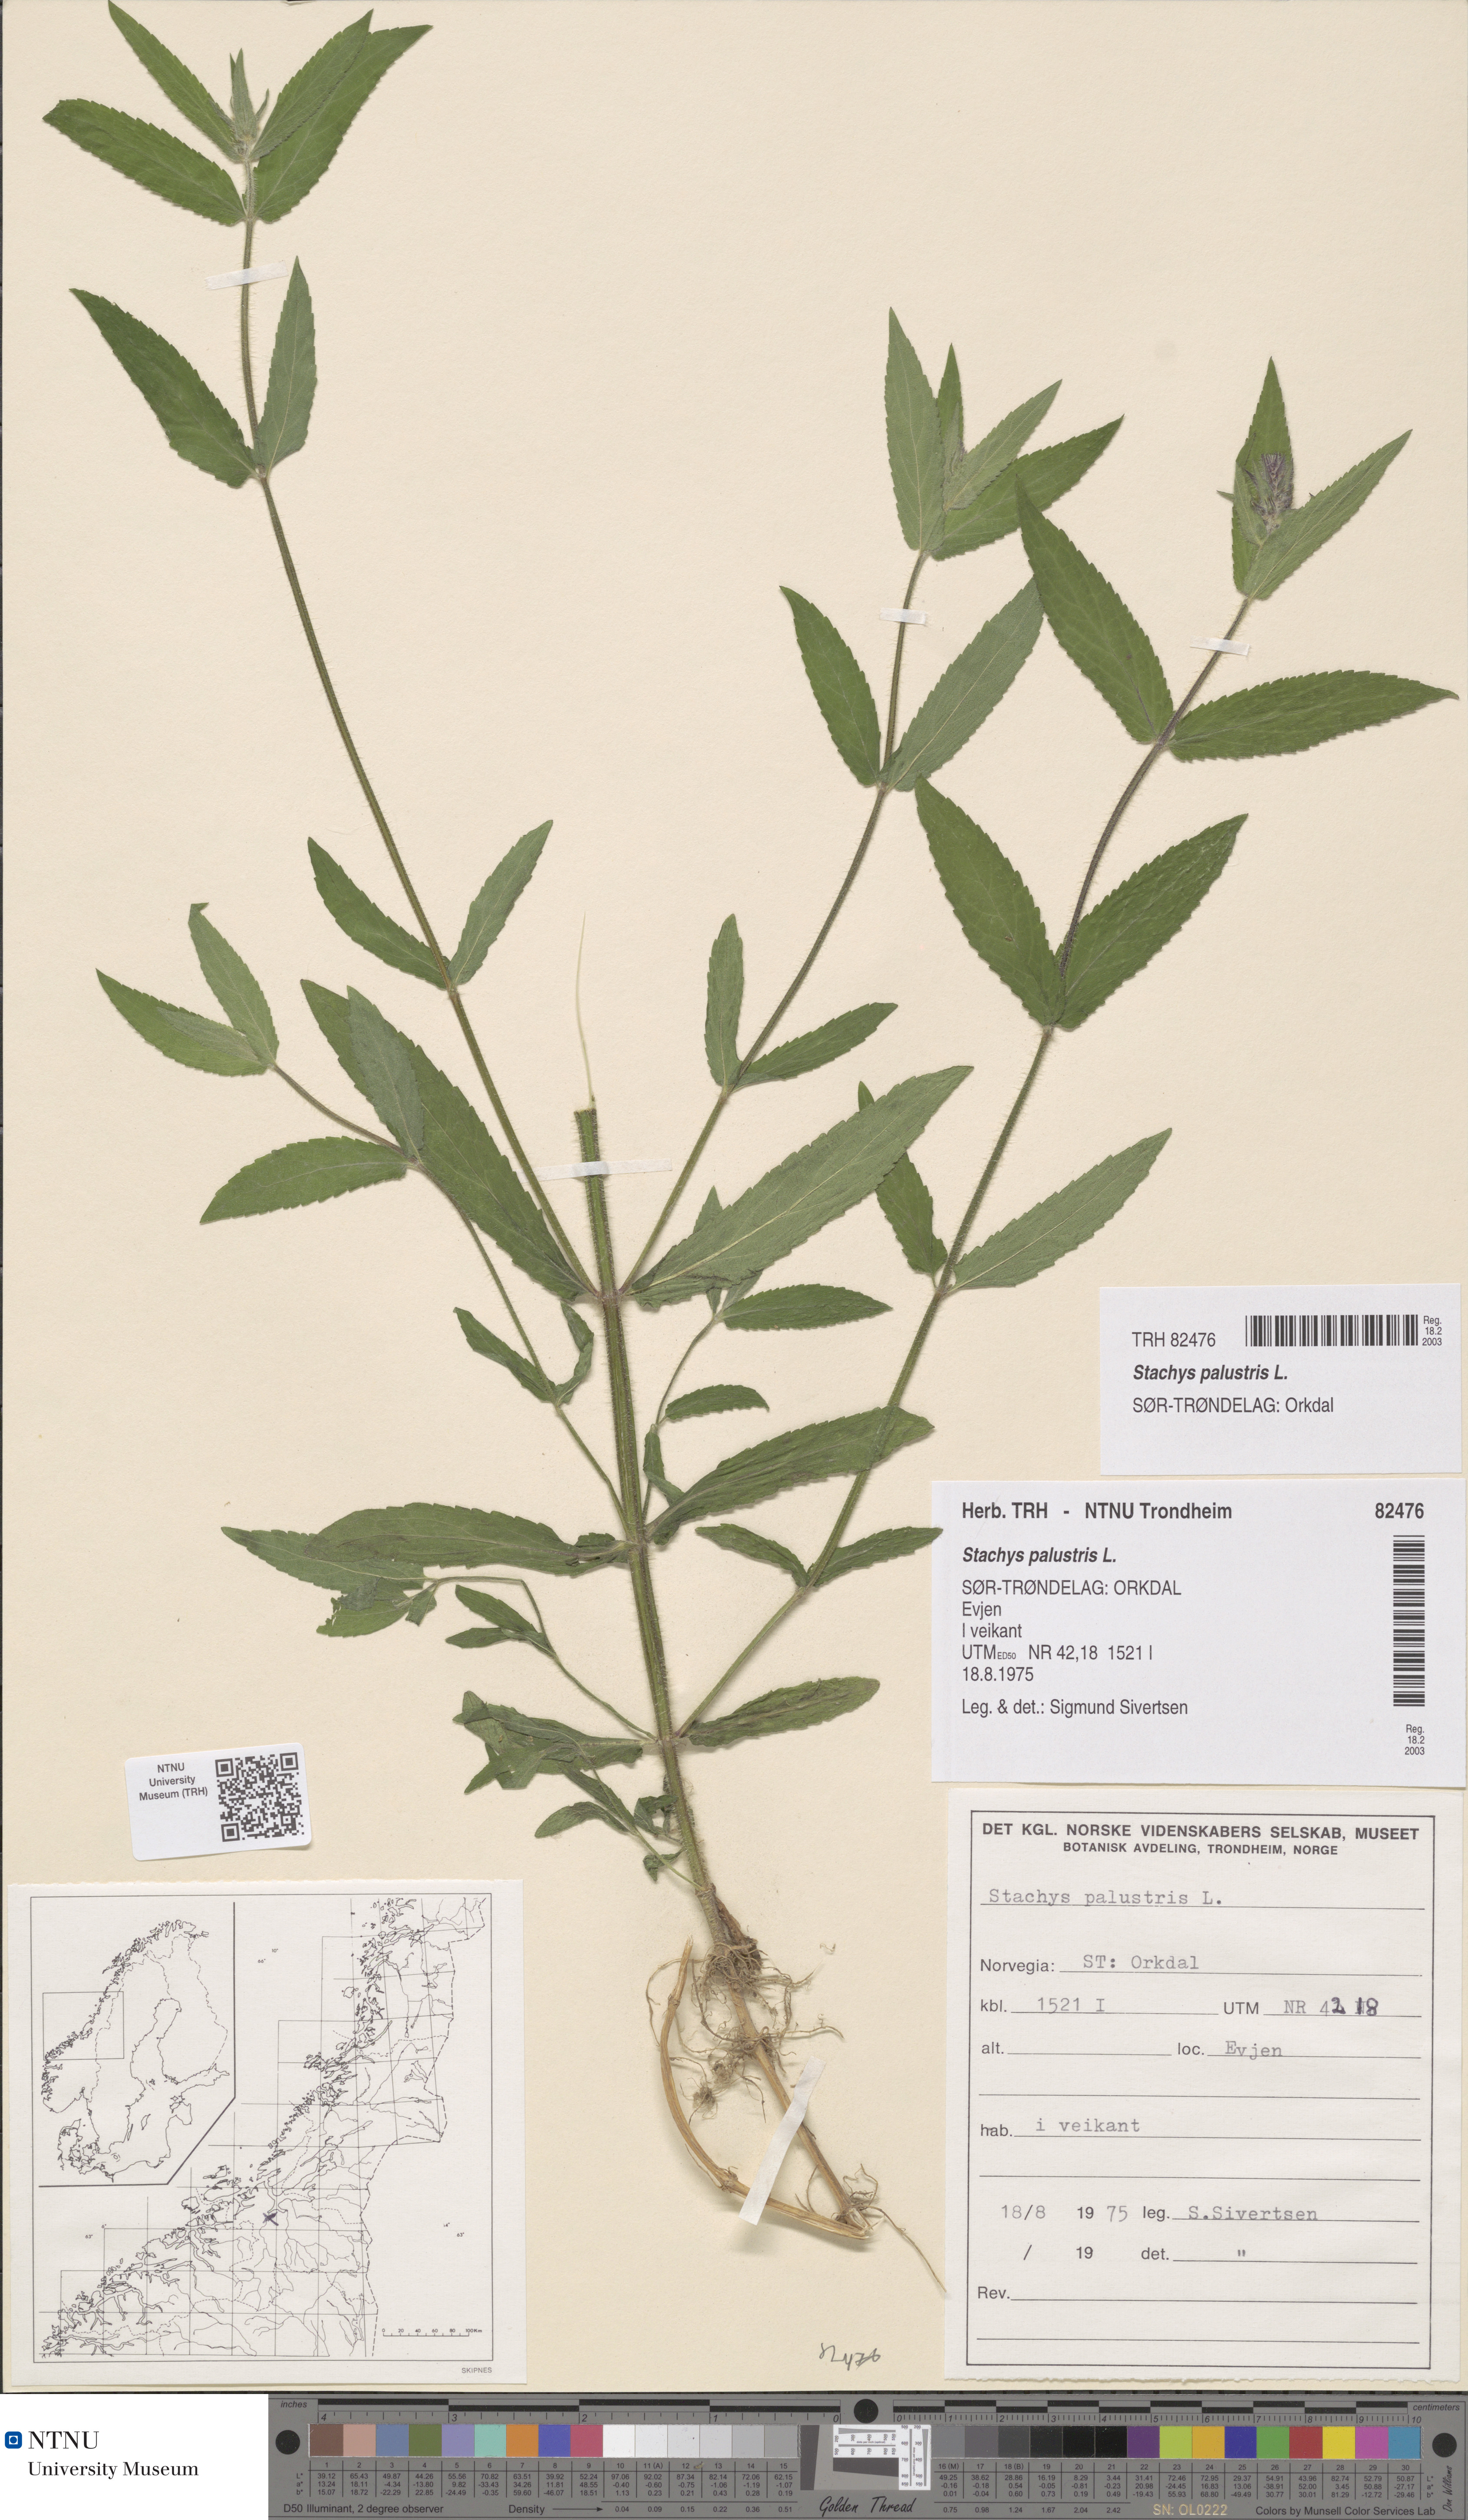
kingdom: Plantae
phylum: Tracheophyta
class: Magnoliopsida
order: Lamiales
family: Lamiaceae
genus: Stachys
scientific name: Stachys palustris
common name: Marsh woundwort
